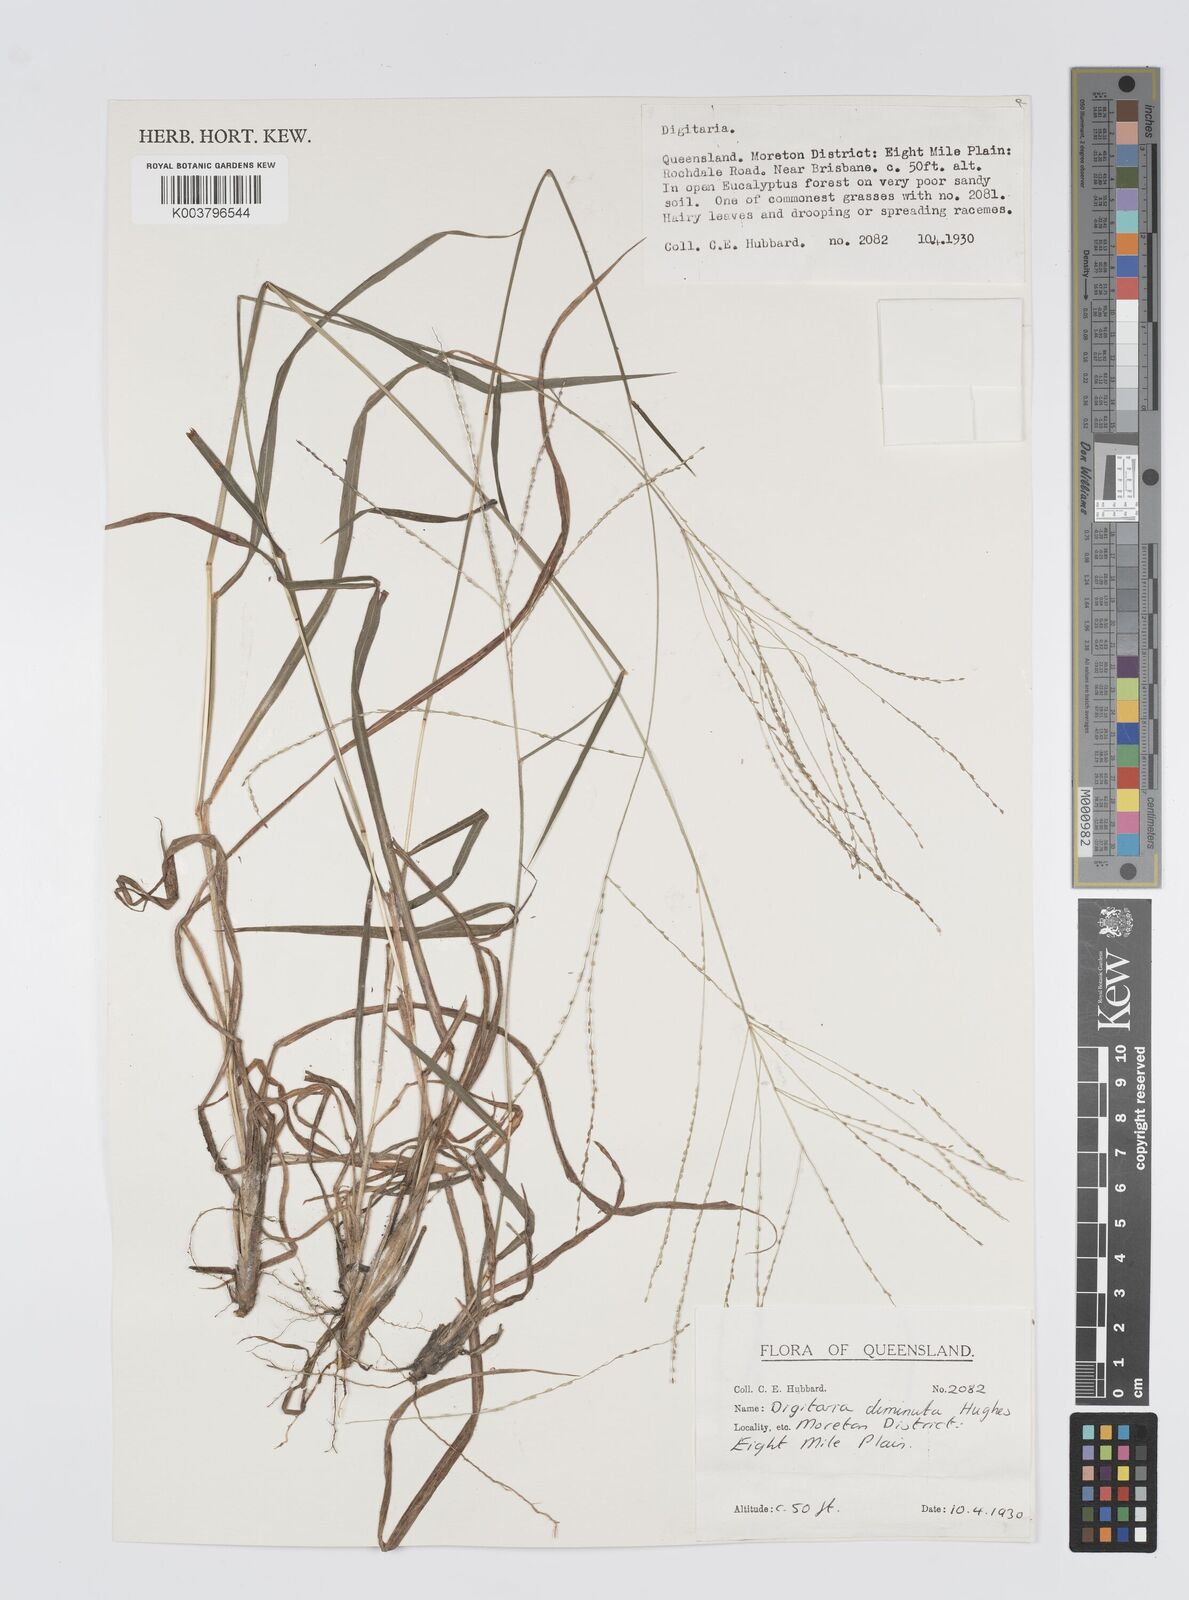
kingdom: Plantae
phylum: Tracheophyta
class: Liliopsida
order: Poales
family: Poaceae
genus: Digitaria
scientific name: Digitaria breviglumis
